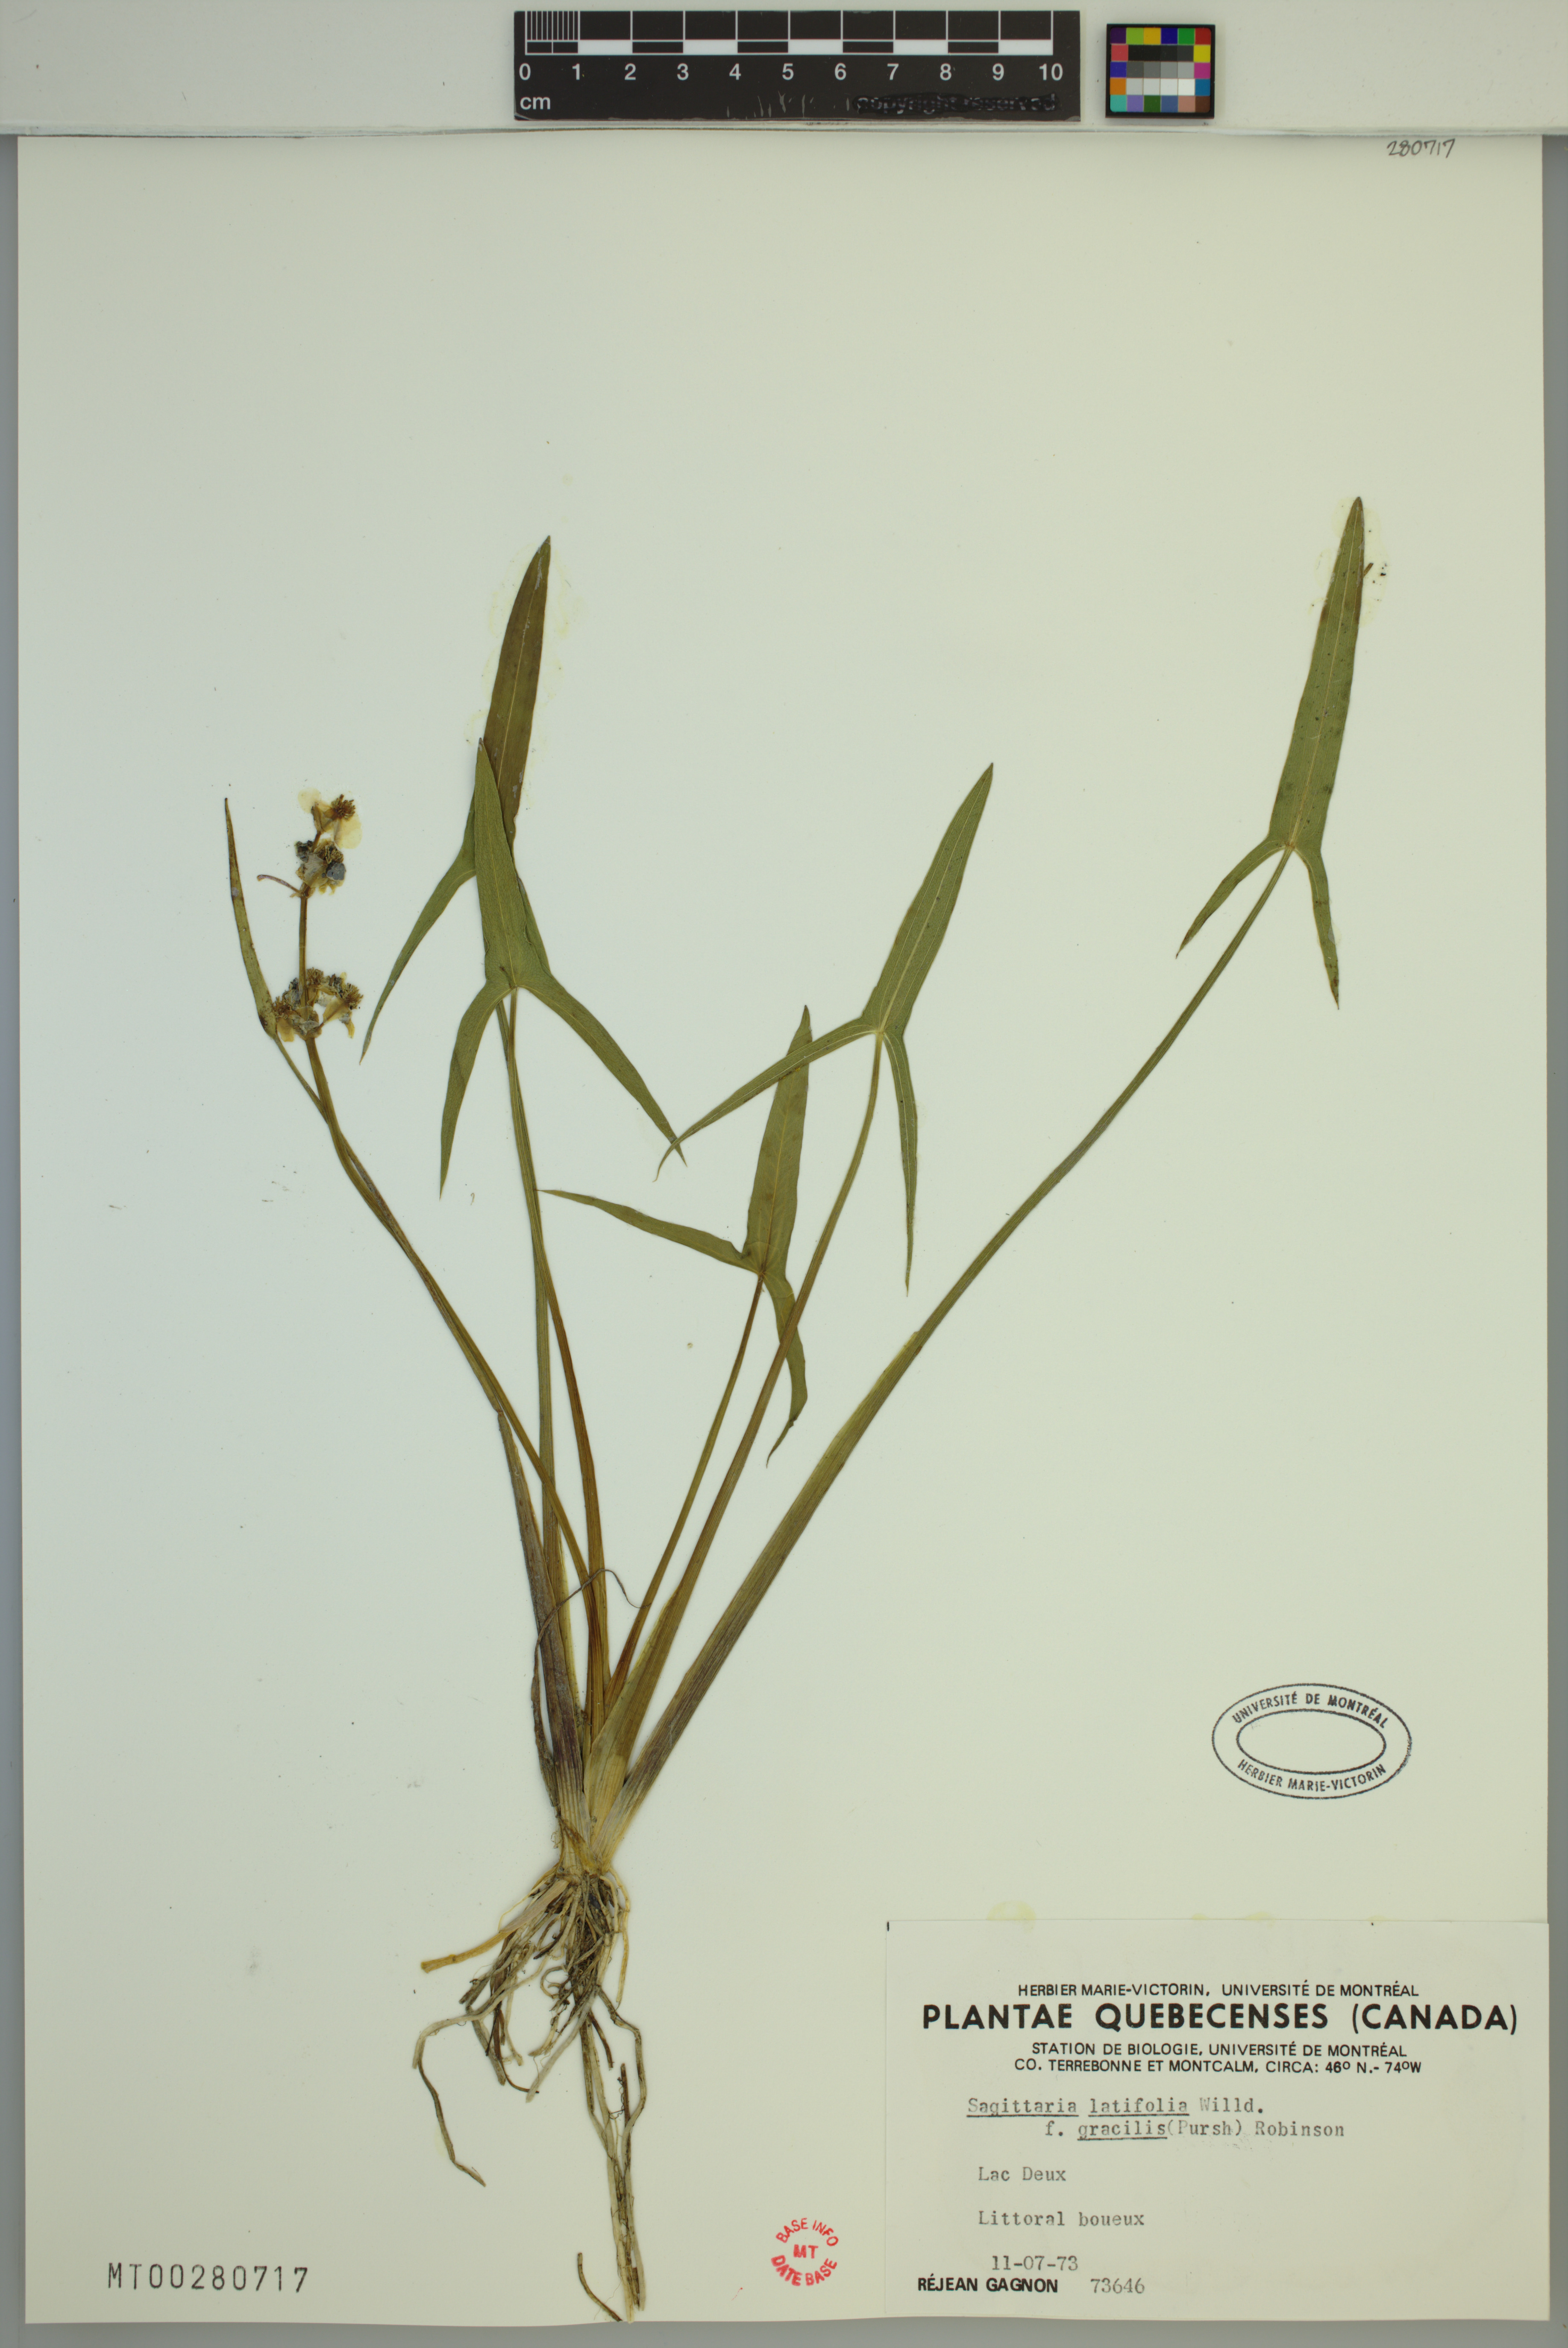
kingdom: Plantae
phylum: Tracheophyta
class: Liliopsida
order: Alismatales
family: Alismataceae
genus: Sagittaria
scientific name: Sagittaria latifolia
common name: Duck-potato
